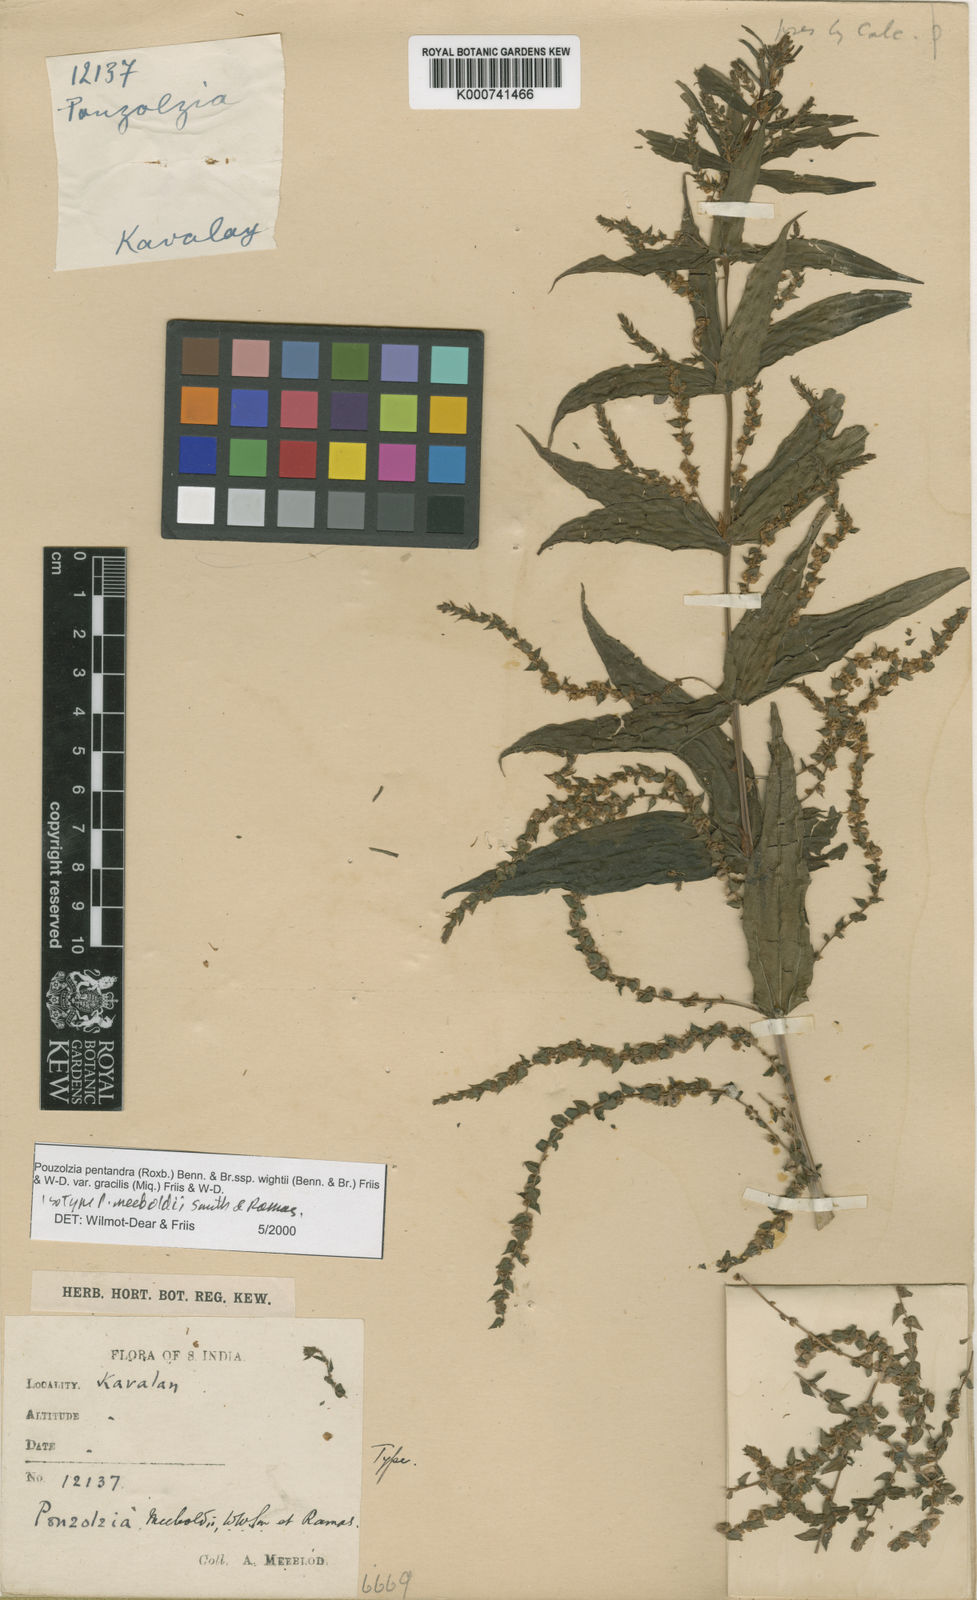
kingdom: Plantae
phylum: Tracheophyta
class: Magnoliopsida
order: Rosales
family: Urticaceae
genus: Gonostegia
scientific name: Gonostegia pentandra
